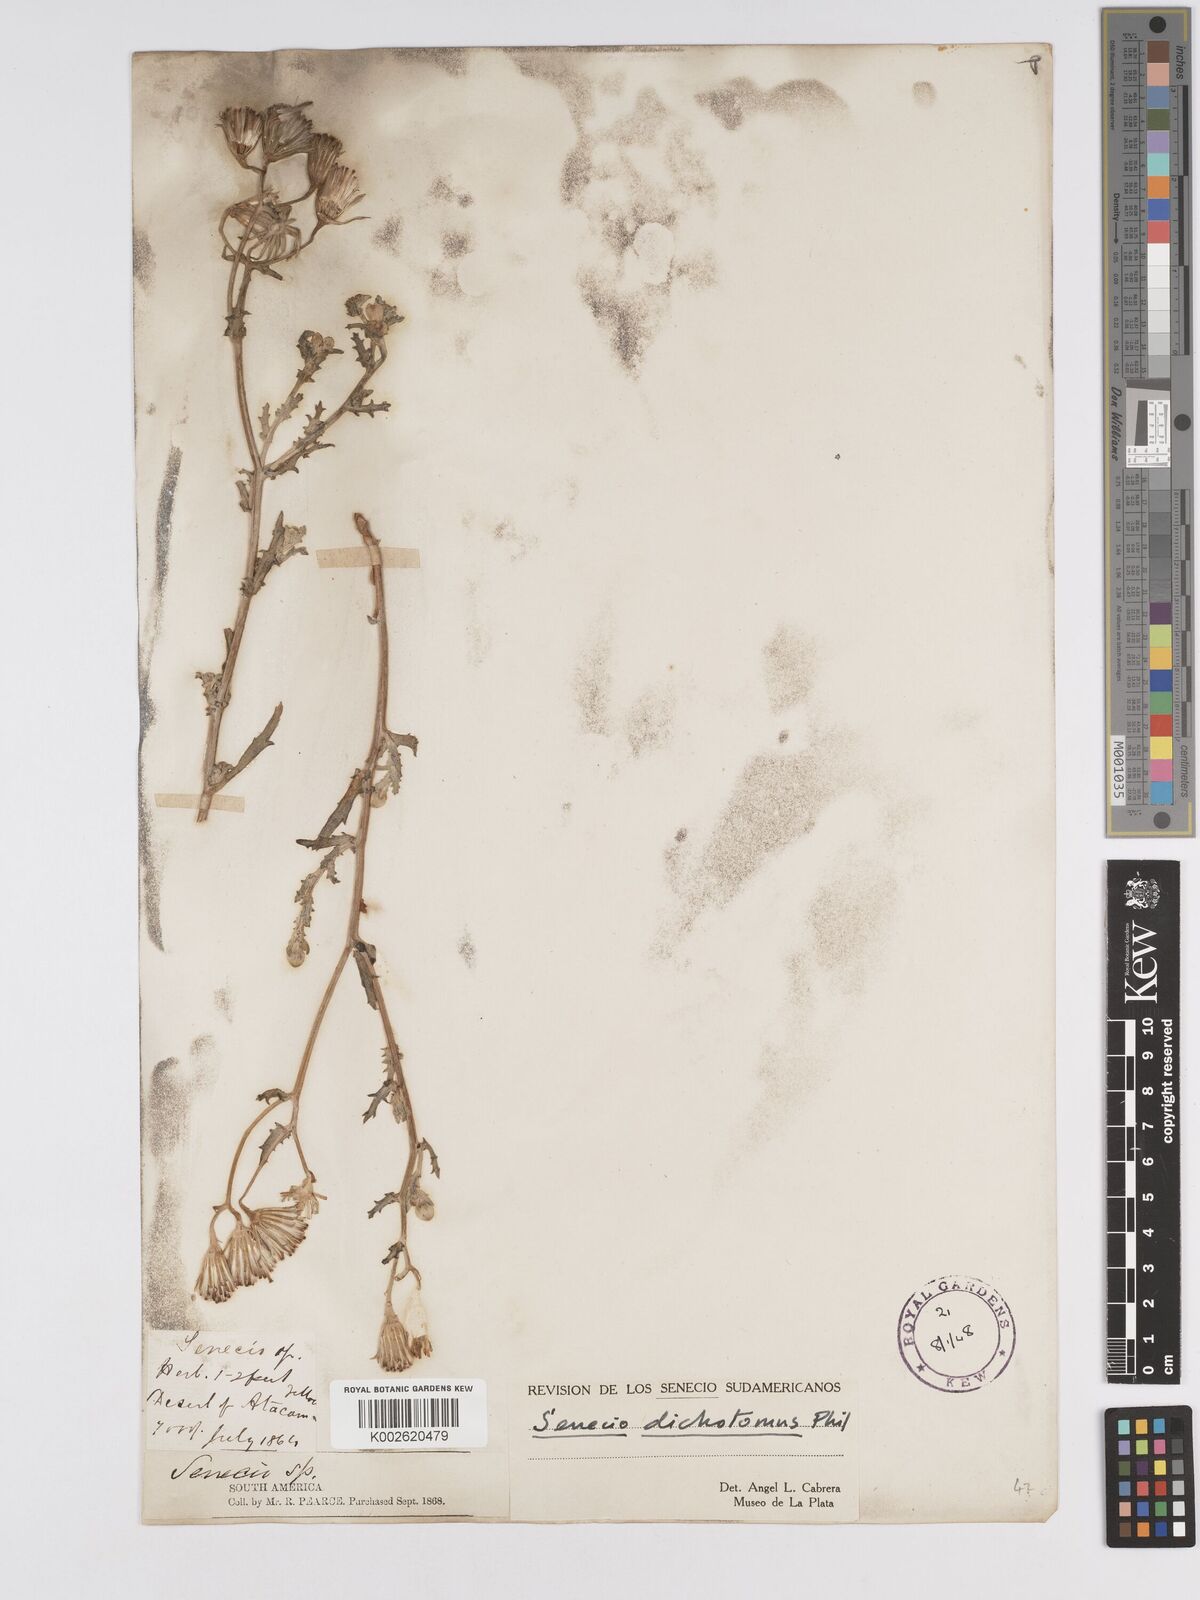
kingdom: Plantae
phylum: Tracheophyta
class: Magnoliopsida
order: Asterales
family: Asteraceae
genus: Senecio
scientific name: Senecio dichotomus
